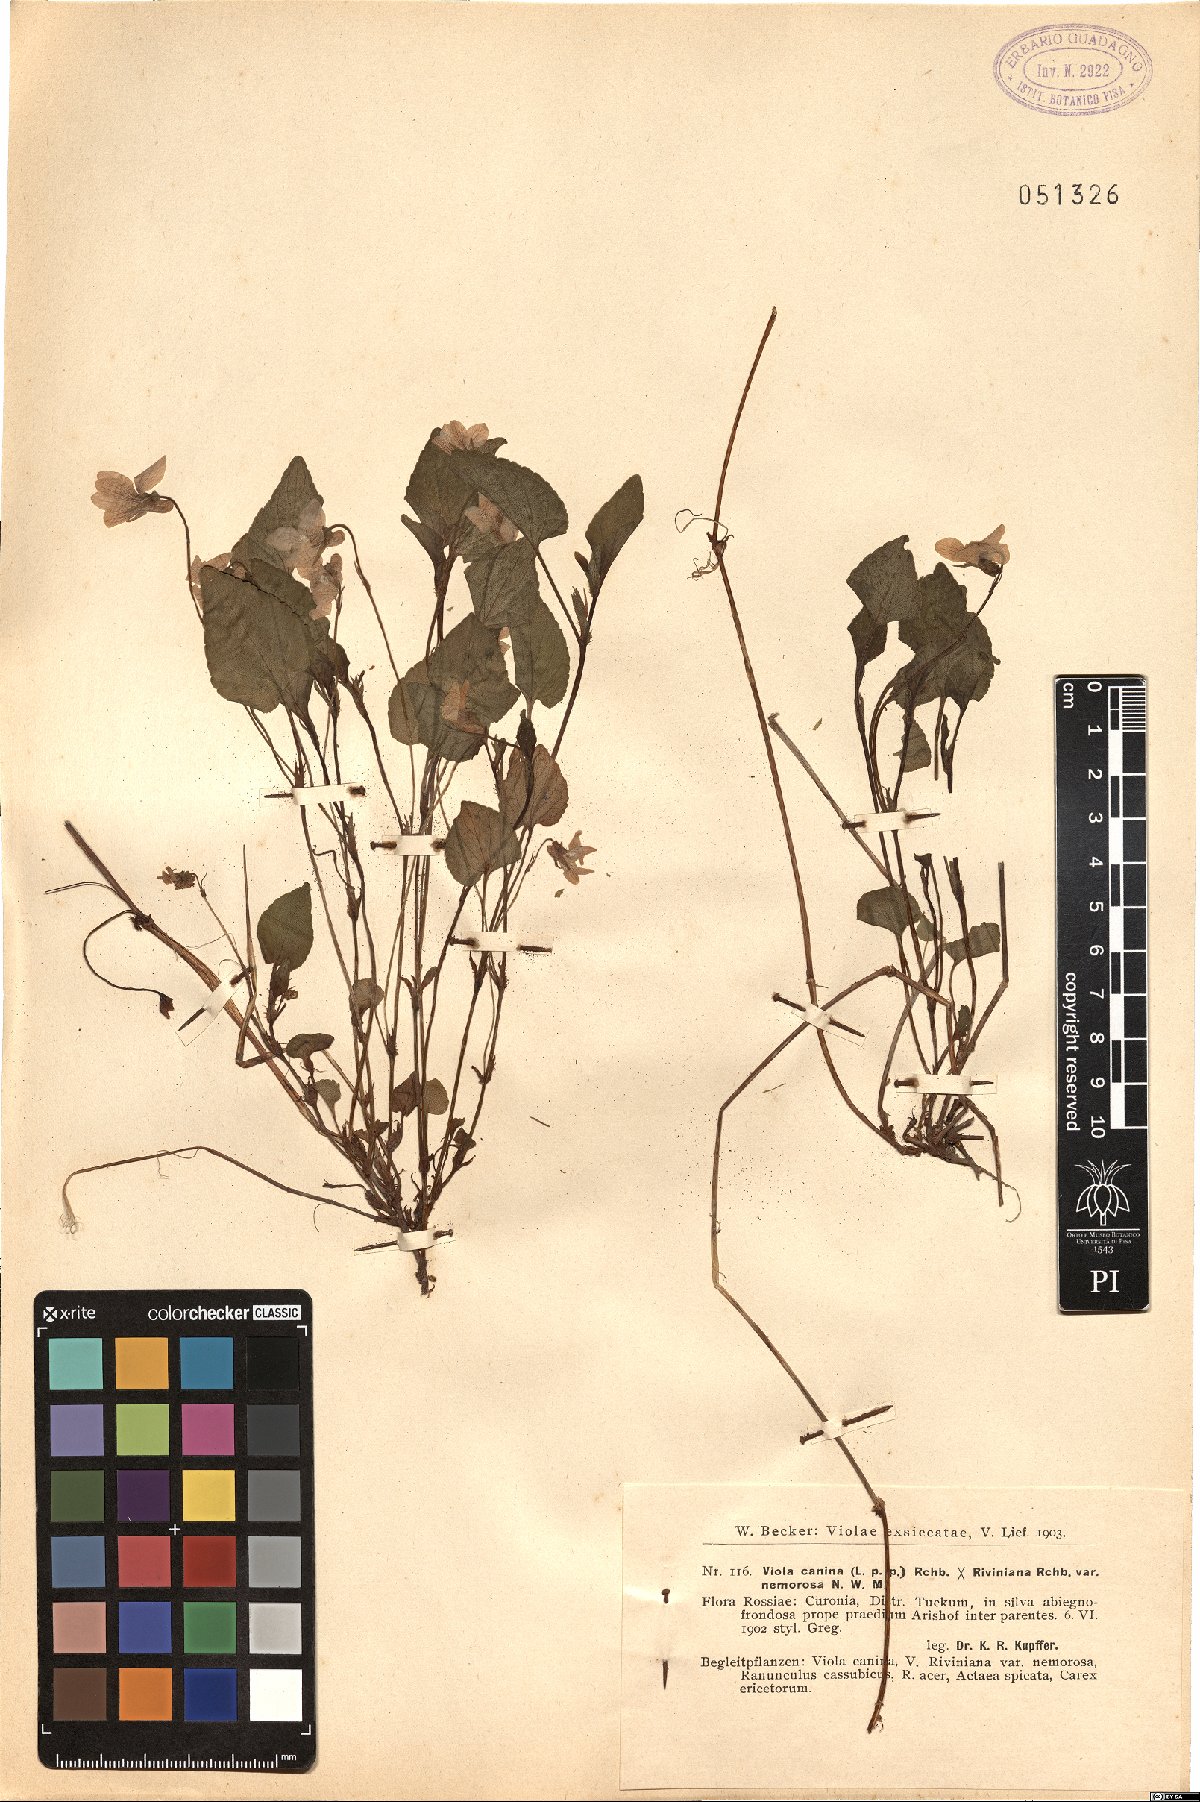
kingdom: Plantae
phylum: Tracheophyta
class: Magnoliopsida
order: Malpighiales
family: Violaceae
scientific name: Violaceae
